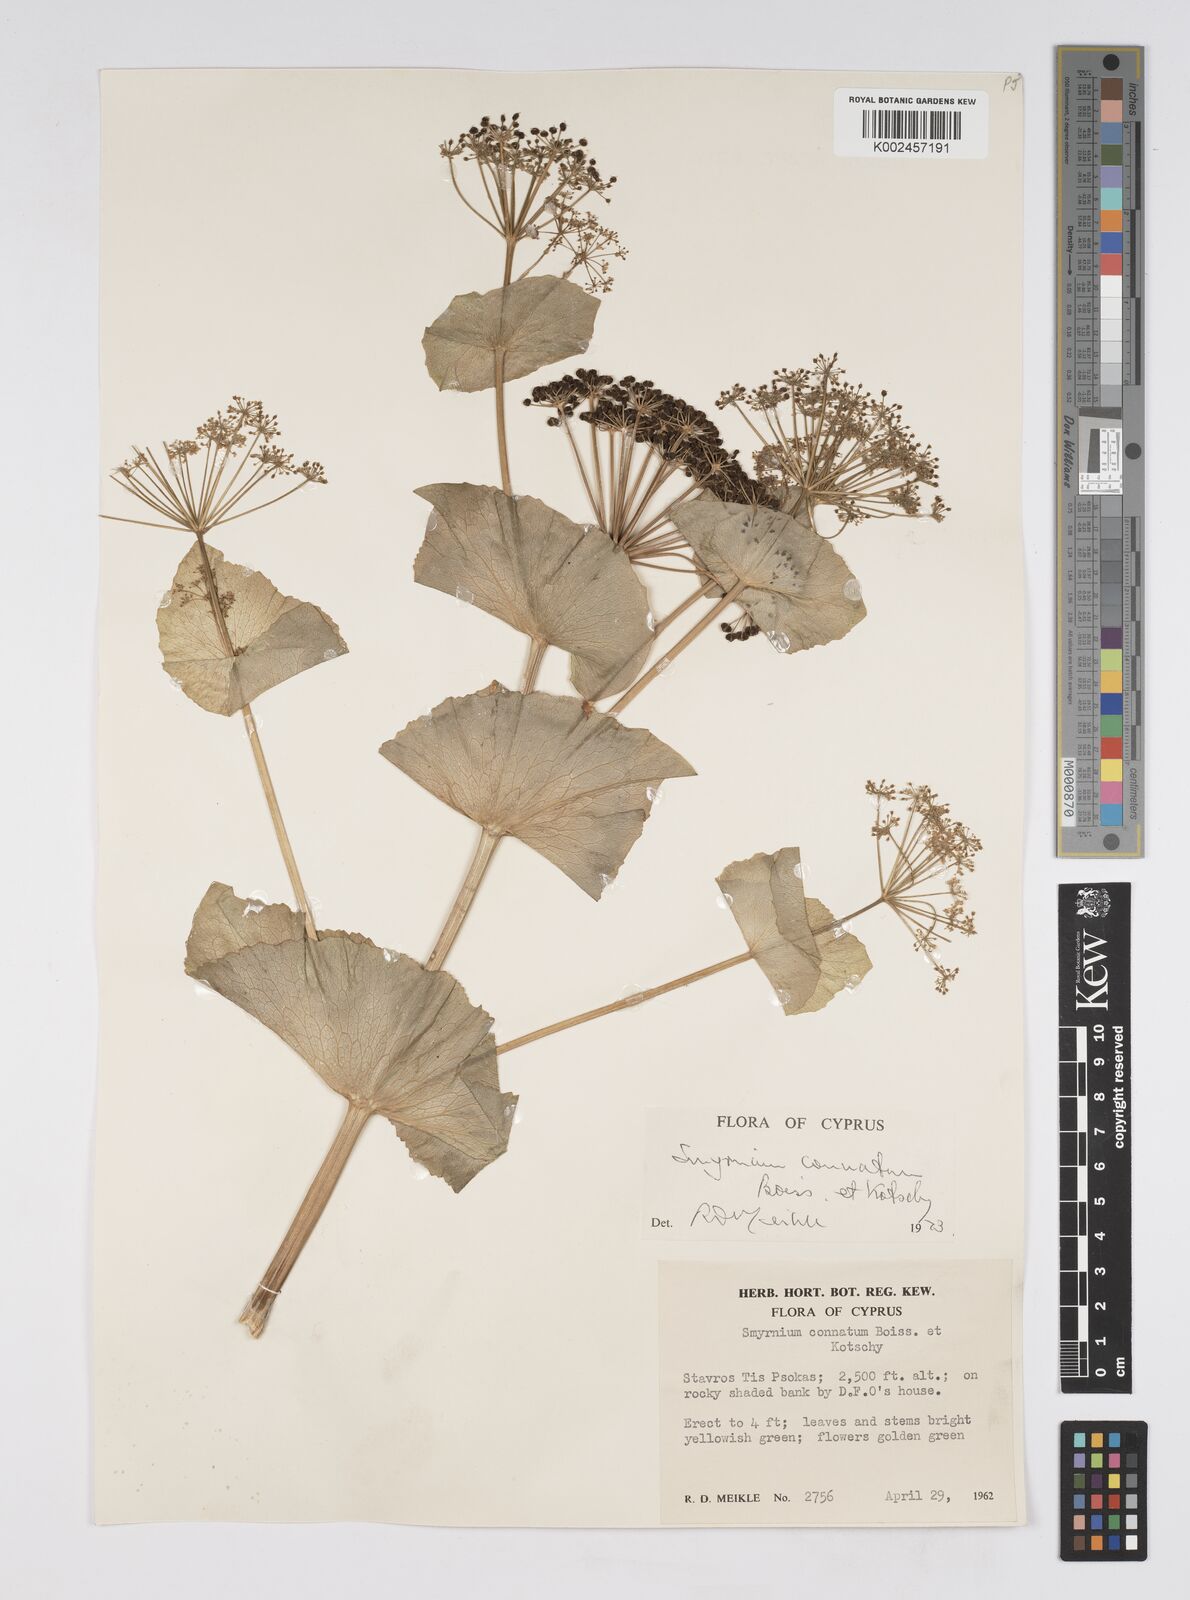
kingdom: Plantae
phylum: Tracheophyta
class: Magnoliopsida
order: Apiales
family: Apiaceae
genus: Smyrnium
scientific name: Smyrnium connatum
